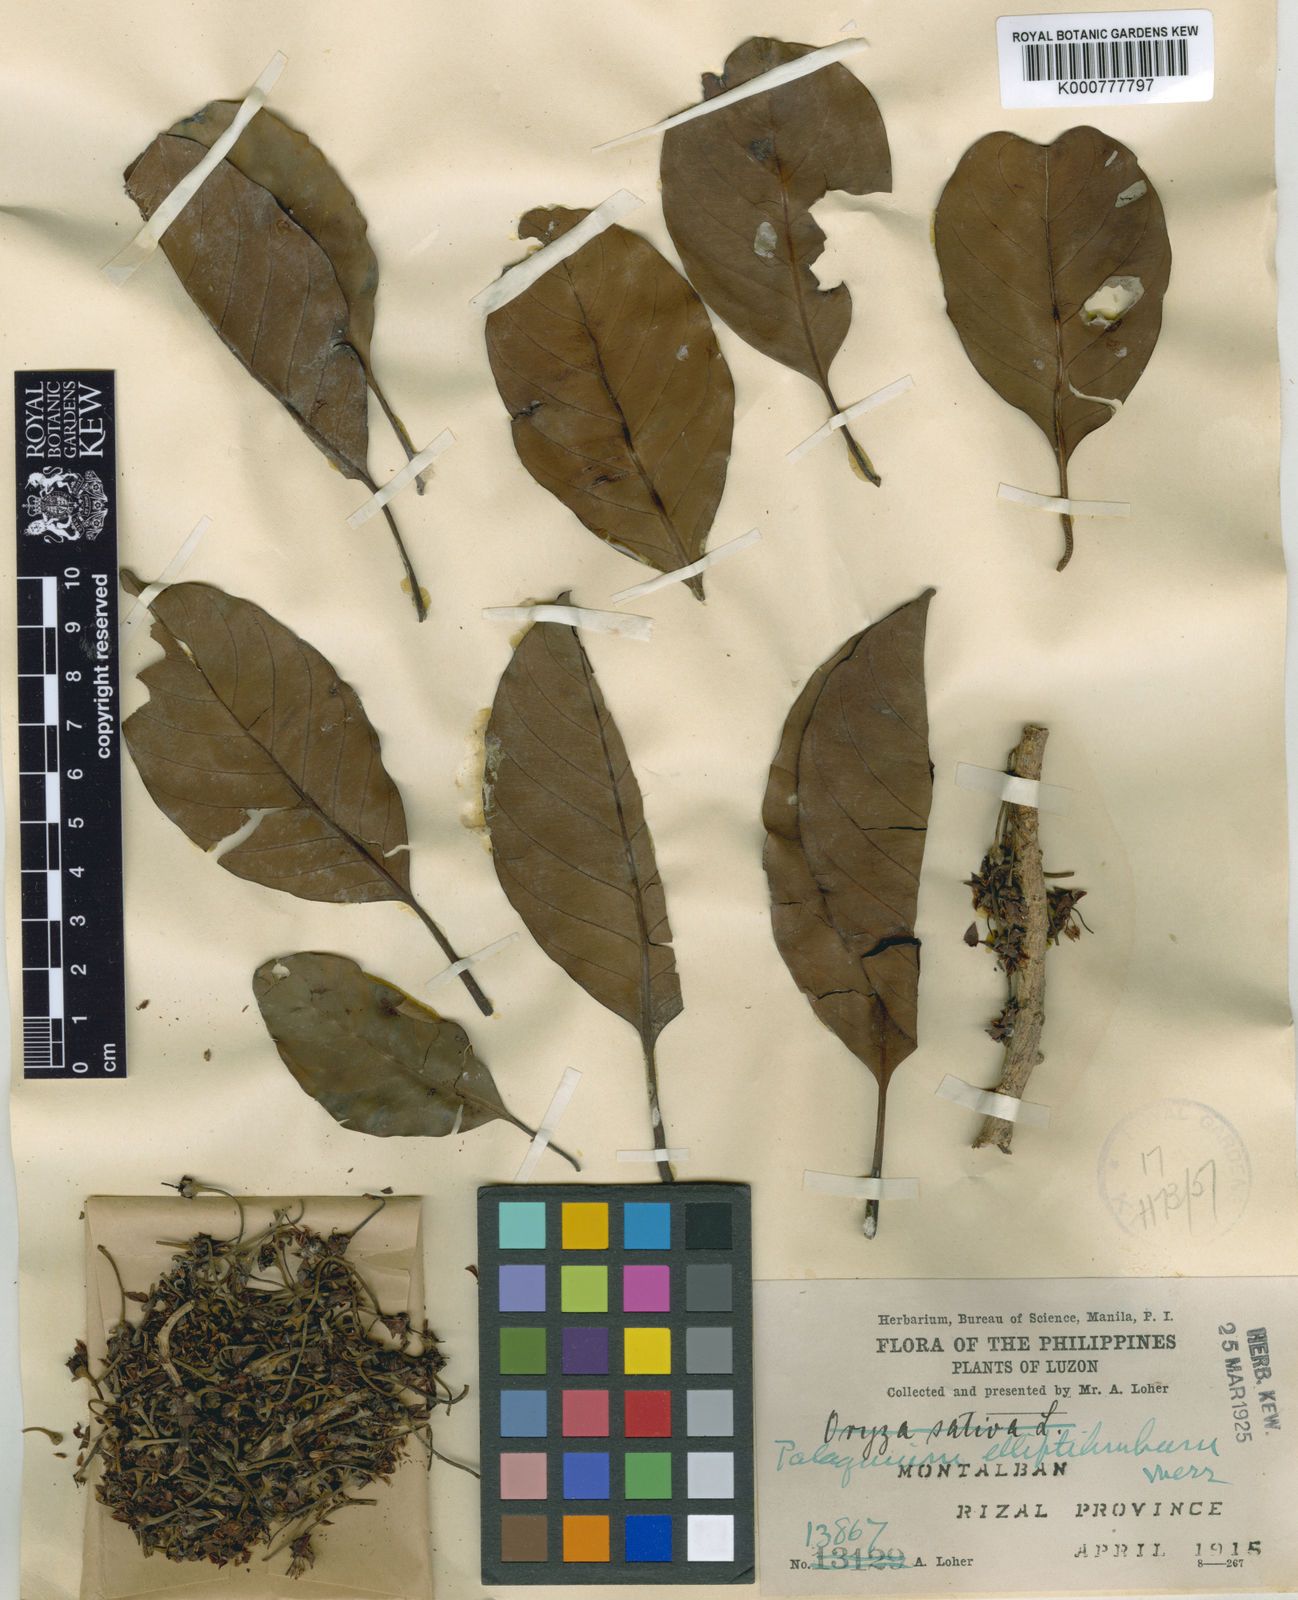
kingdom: Plantae
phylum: Tracheophyta
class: Magnoliopsida
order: Ericales
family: Sapotaceae
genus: Palaquium
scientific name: Palaquium elliptilimbum
